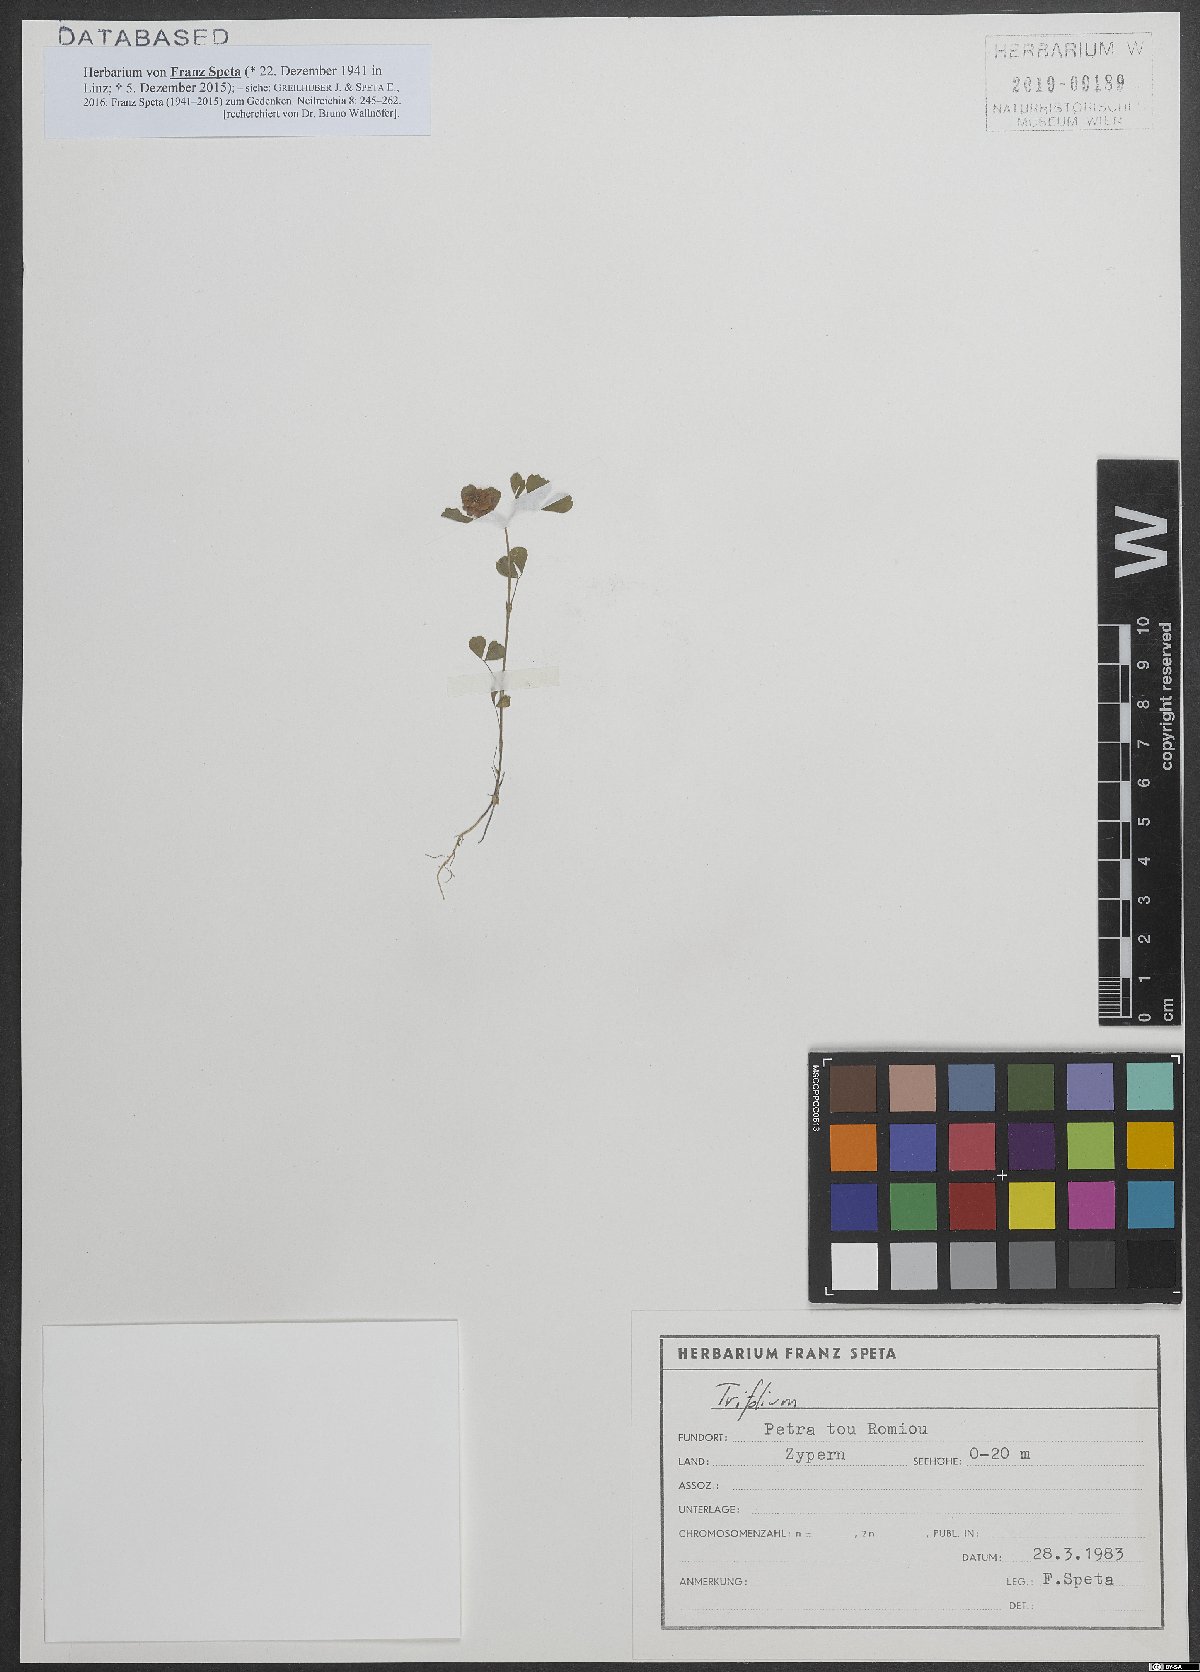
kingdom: Plantae
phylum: Tracheophyta
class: Magnoliopsida
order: Fabales
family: Fabaceae
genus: Trifolium
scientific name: Trifolium campestre
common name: Field clover
